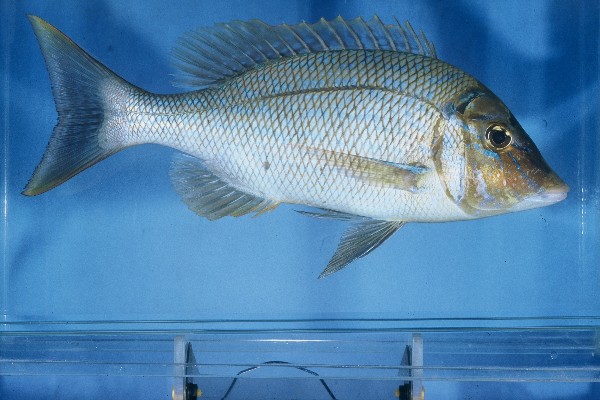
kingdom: Animalia
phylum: Chordata
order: Perciformes
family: Lethrinidae
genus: Lethrinus
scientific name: Lethrinus nebulosus
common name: Spangled emperor
